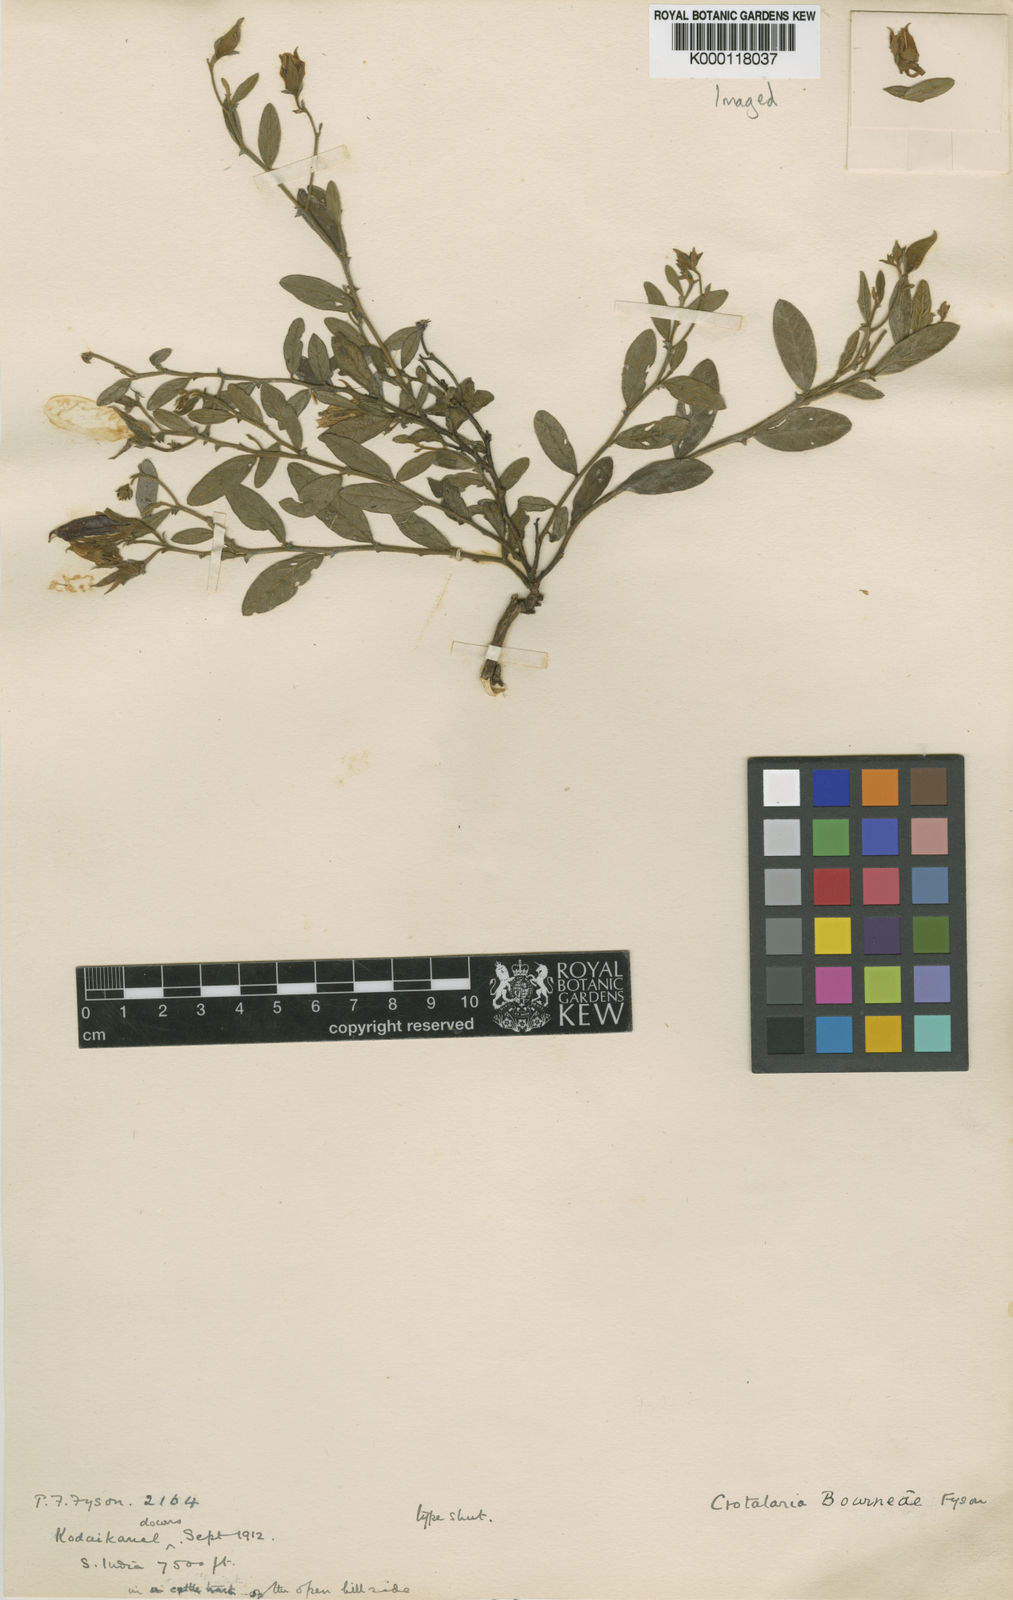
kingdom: Plantae
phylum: Tracheophyta
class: Magnoliopsida
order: Fabales
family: Fabaceae
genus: Crotalaria
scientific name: Crotalaria scabrella
